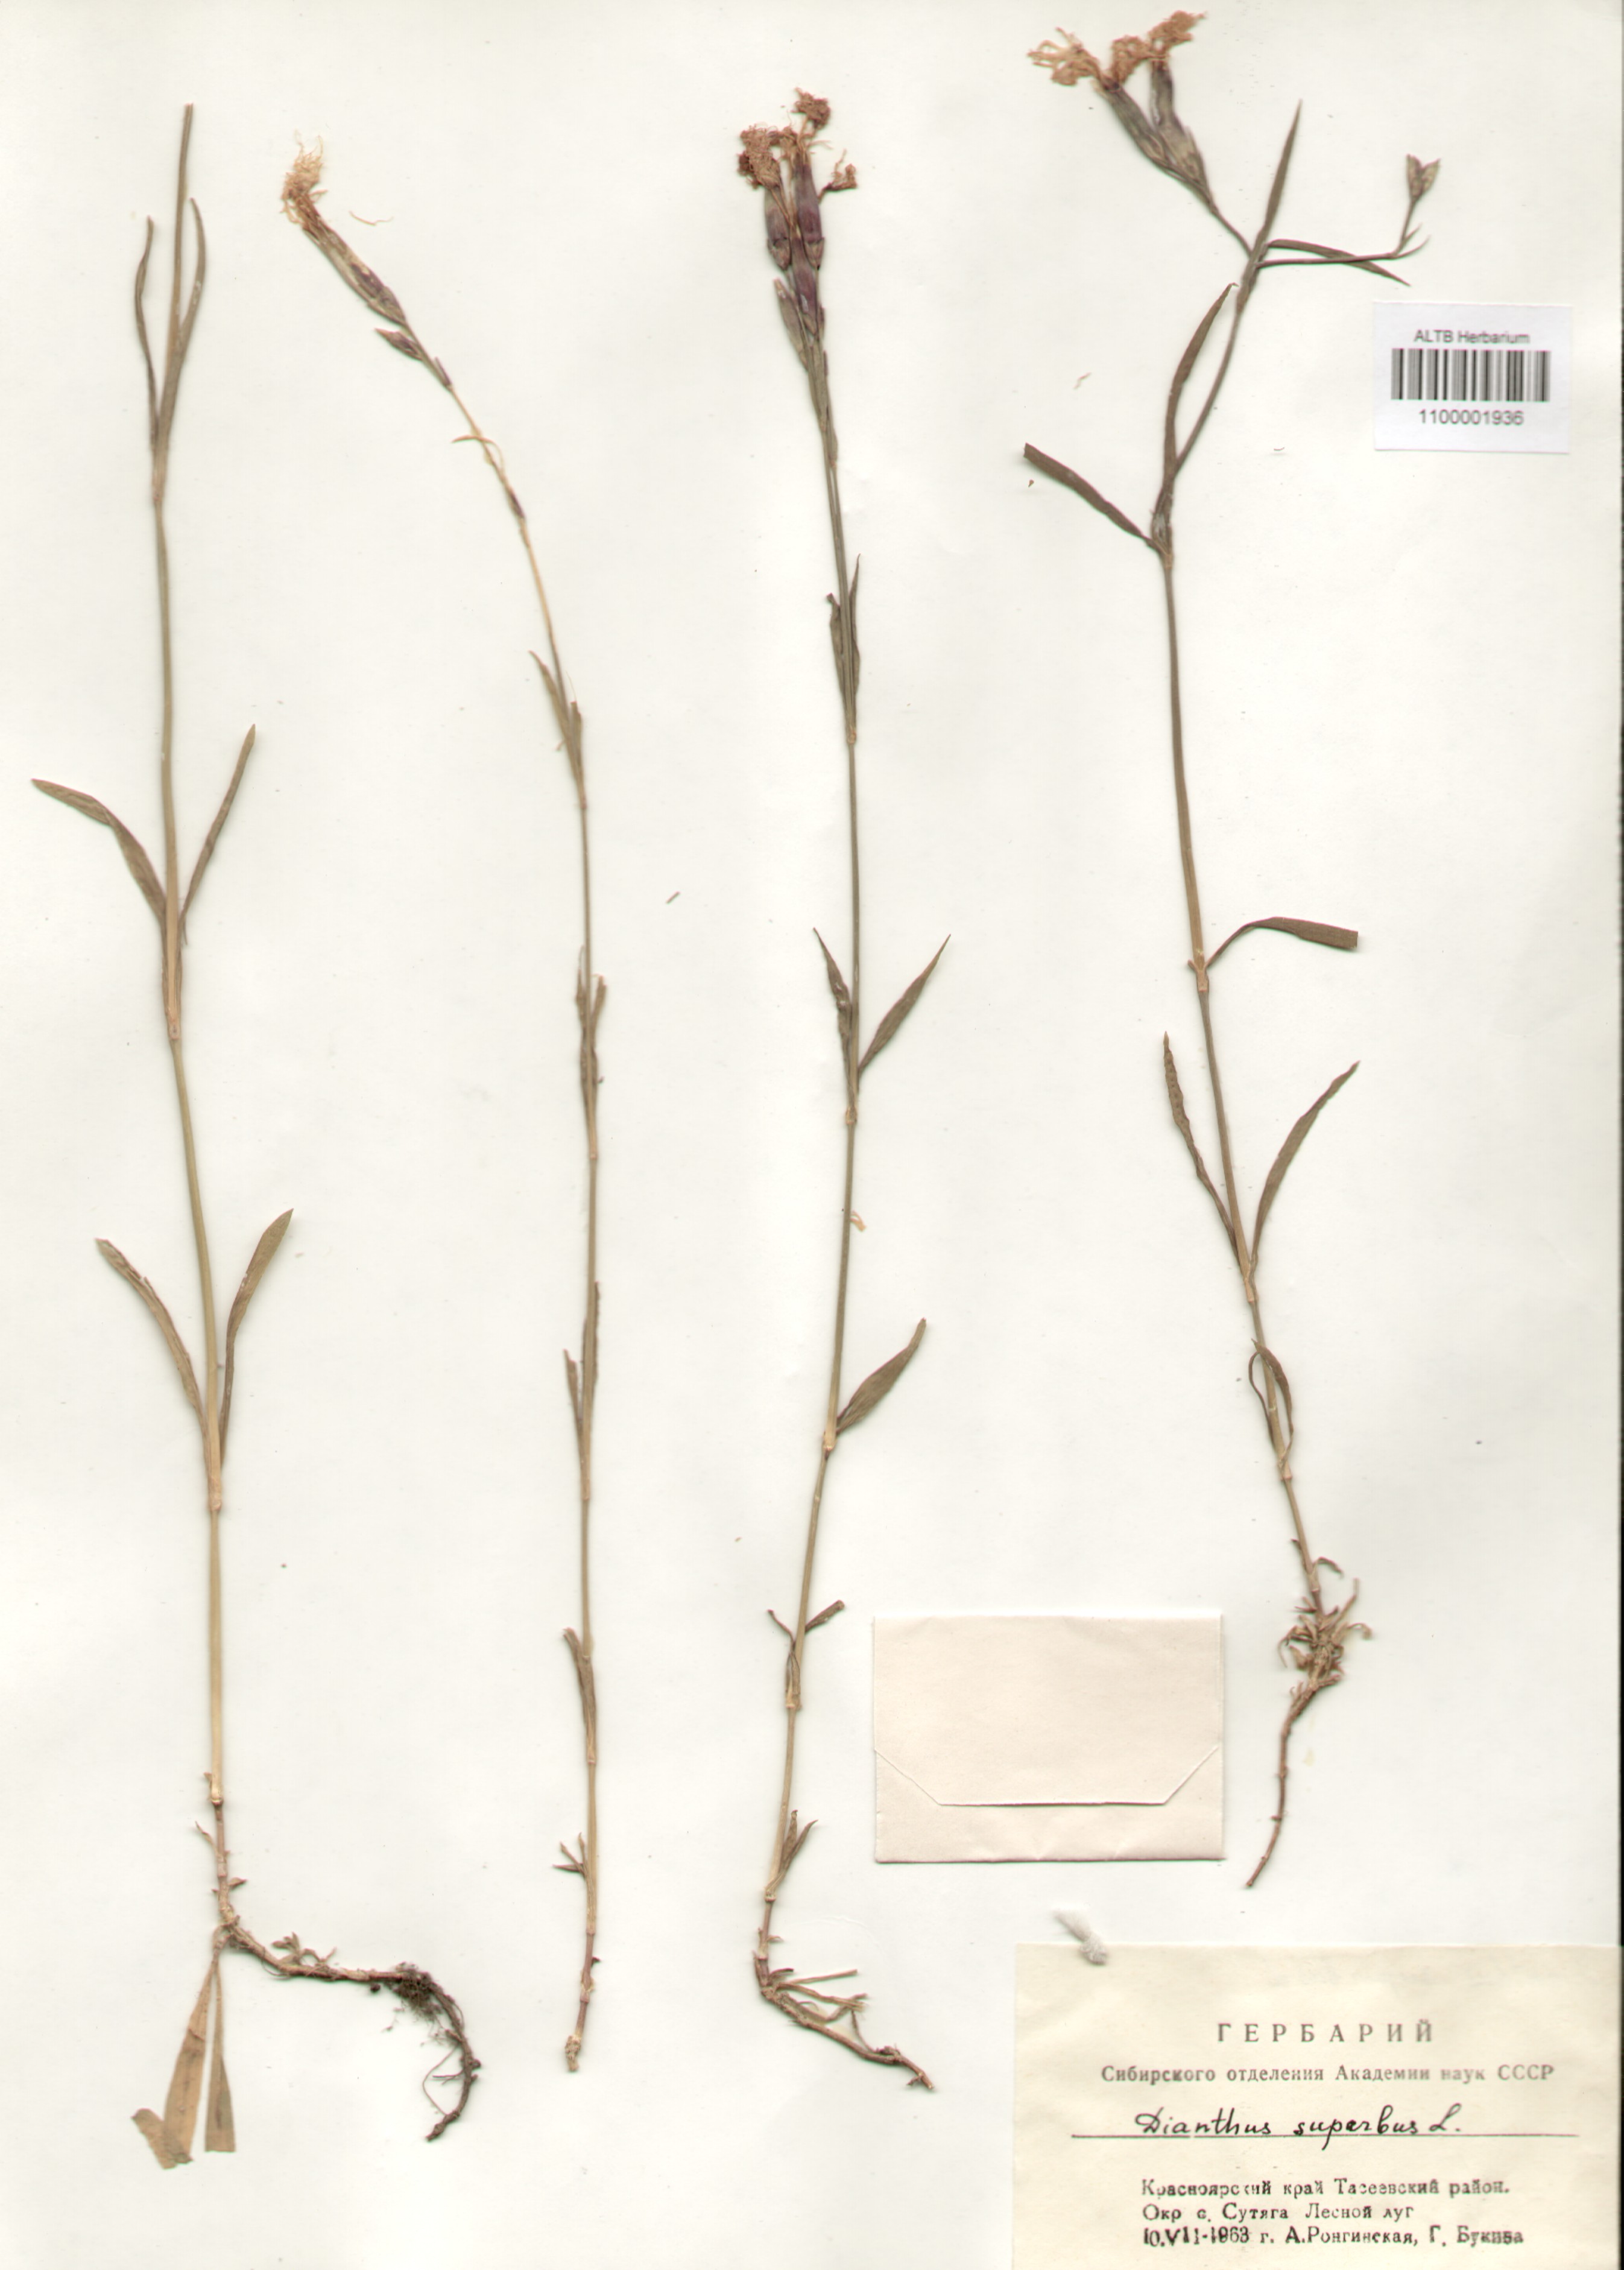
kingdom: Plantae
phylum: Tracheophyta
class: Magnoliopsida
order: Caryophyllales
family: Caryophyllaceae
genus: Dianthus
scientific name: Dianthus superbus
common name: Fringed pink
